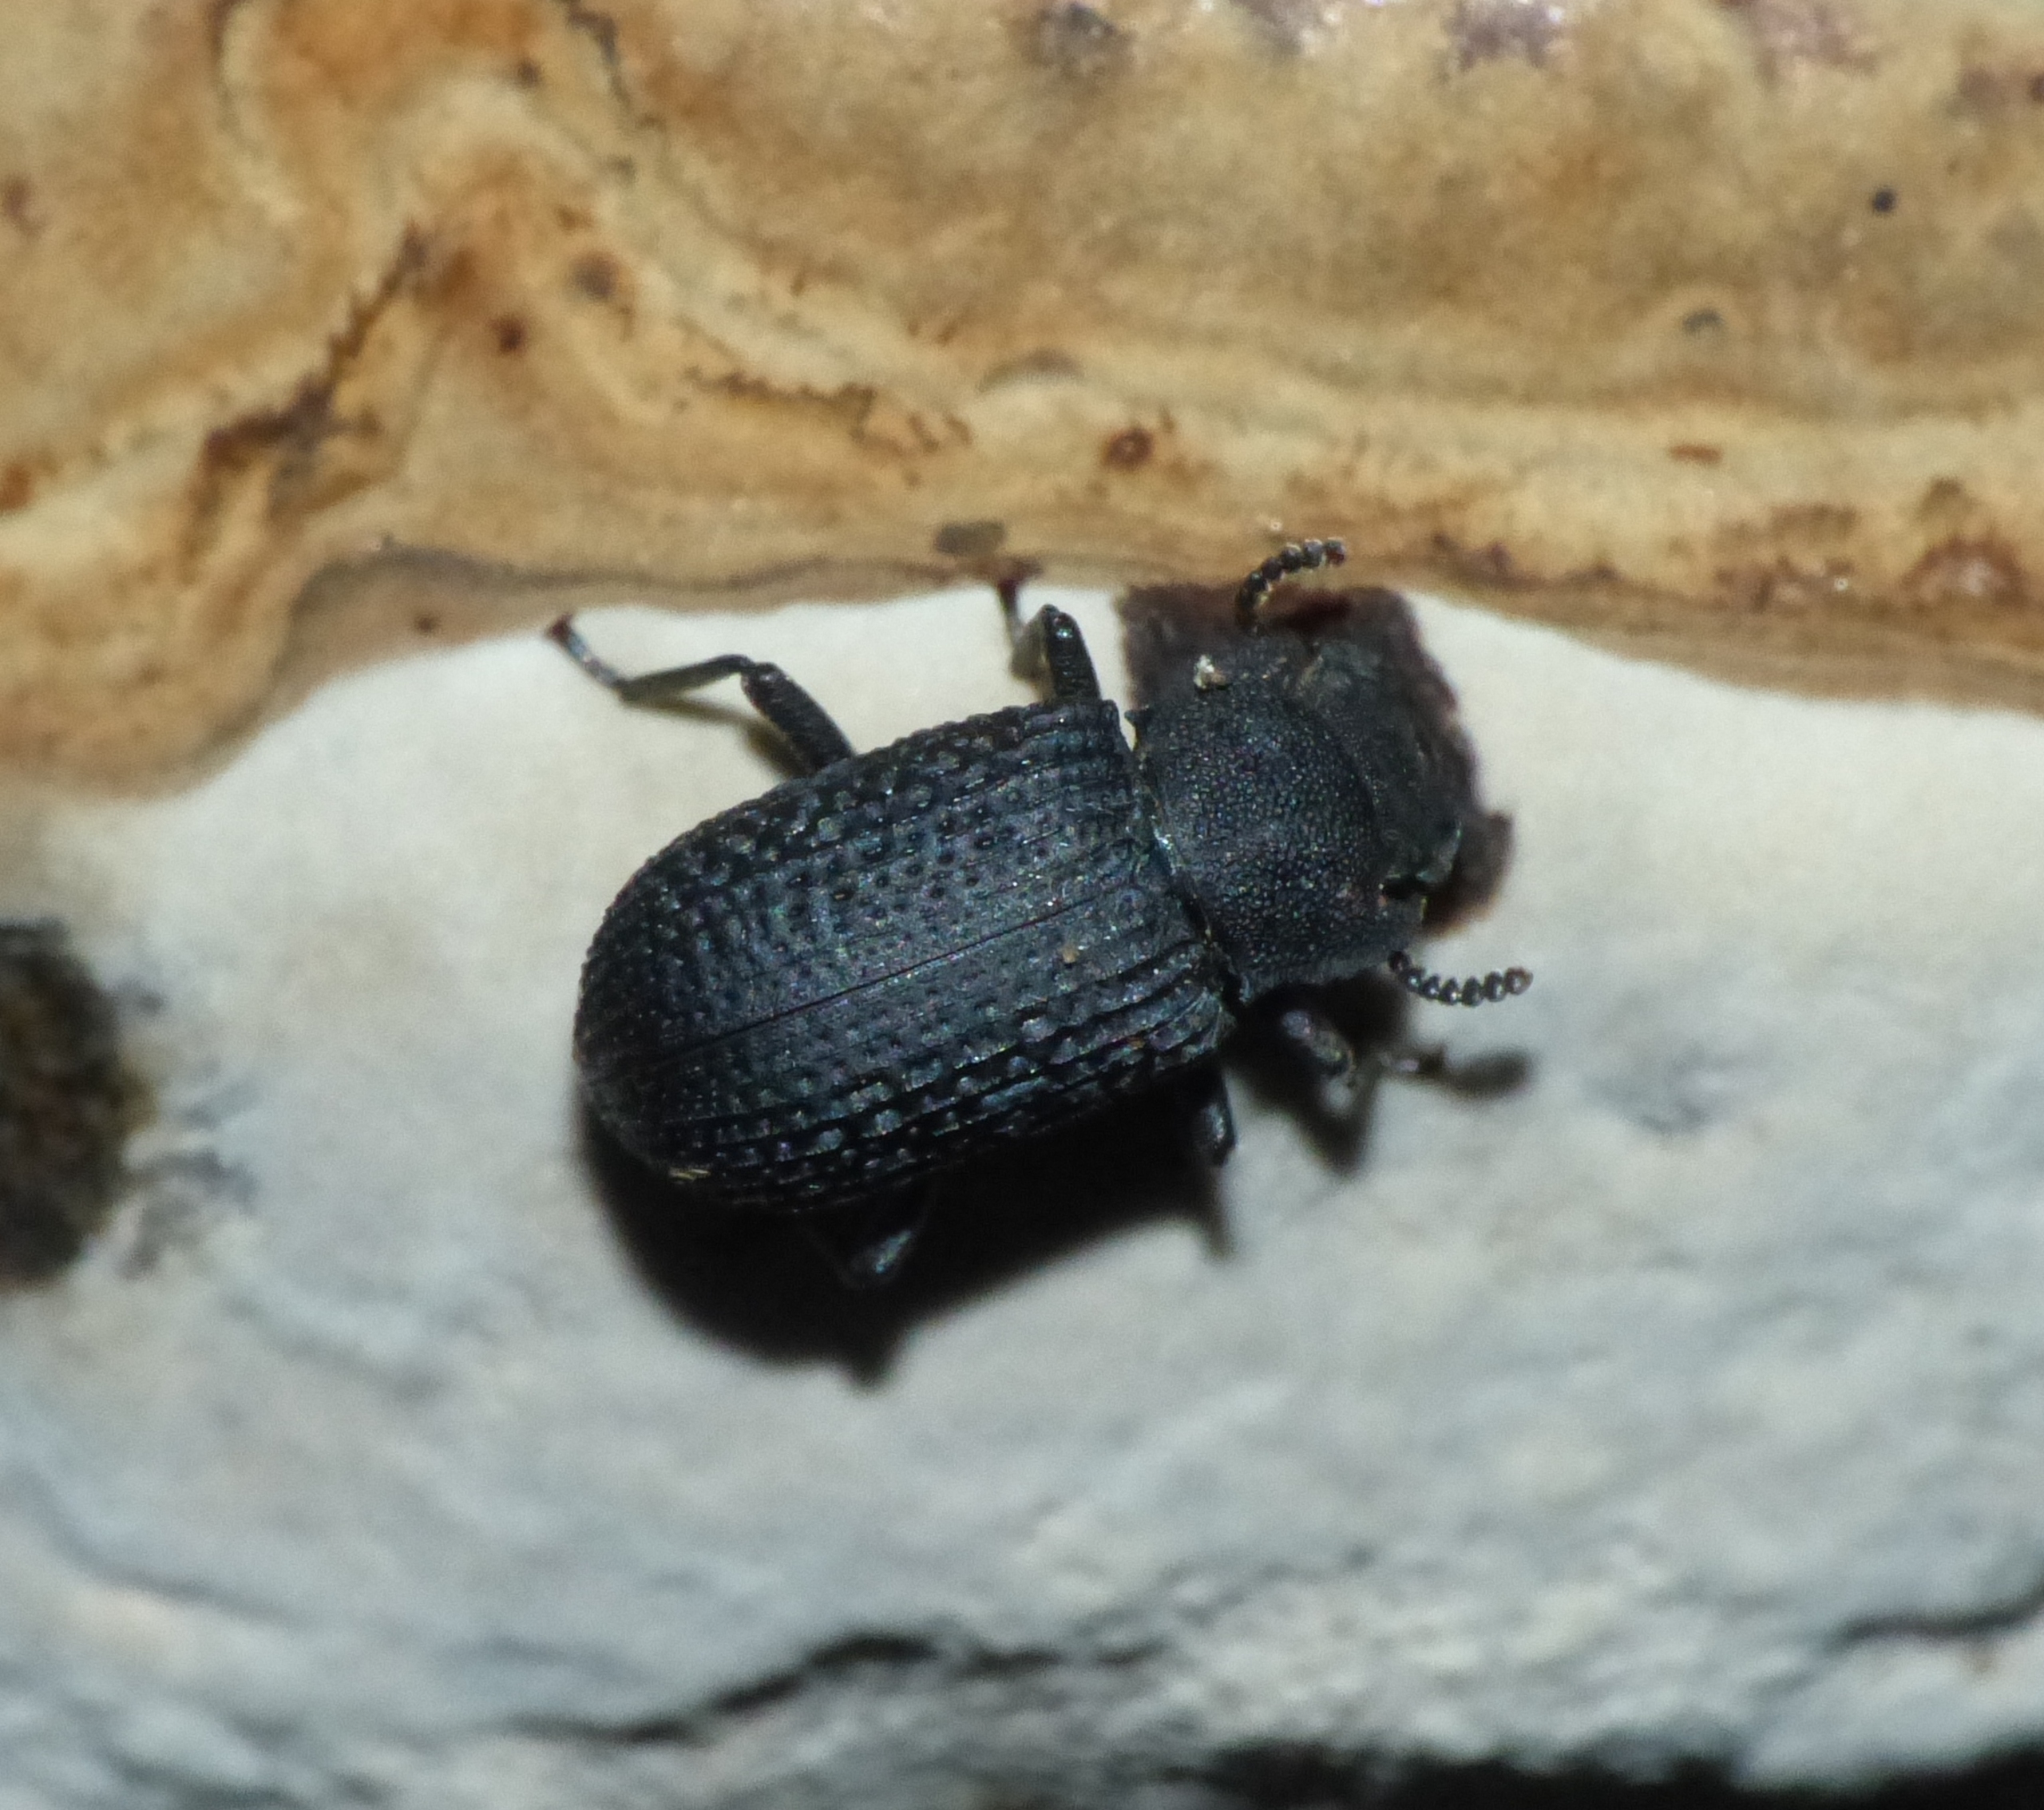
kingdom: Animalia
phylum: Arthropoda
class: Insecta
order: Coleoptera
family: Tenebrionidae
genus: Bolitophagus
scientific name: Bolitophagus reticulatus
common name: Netskyggebille
